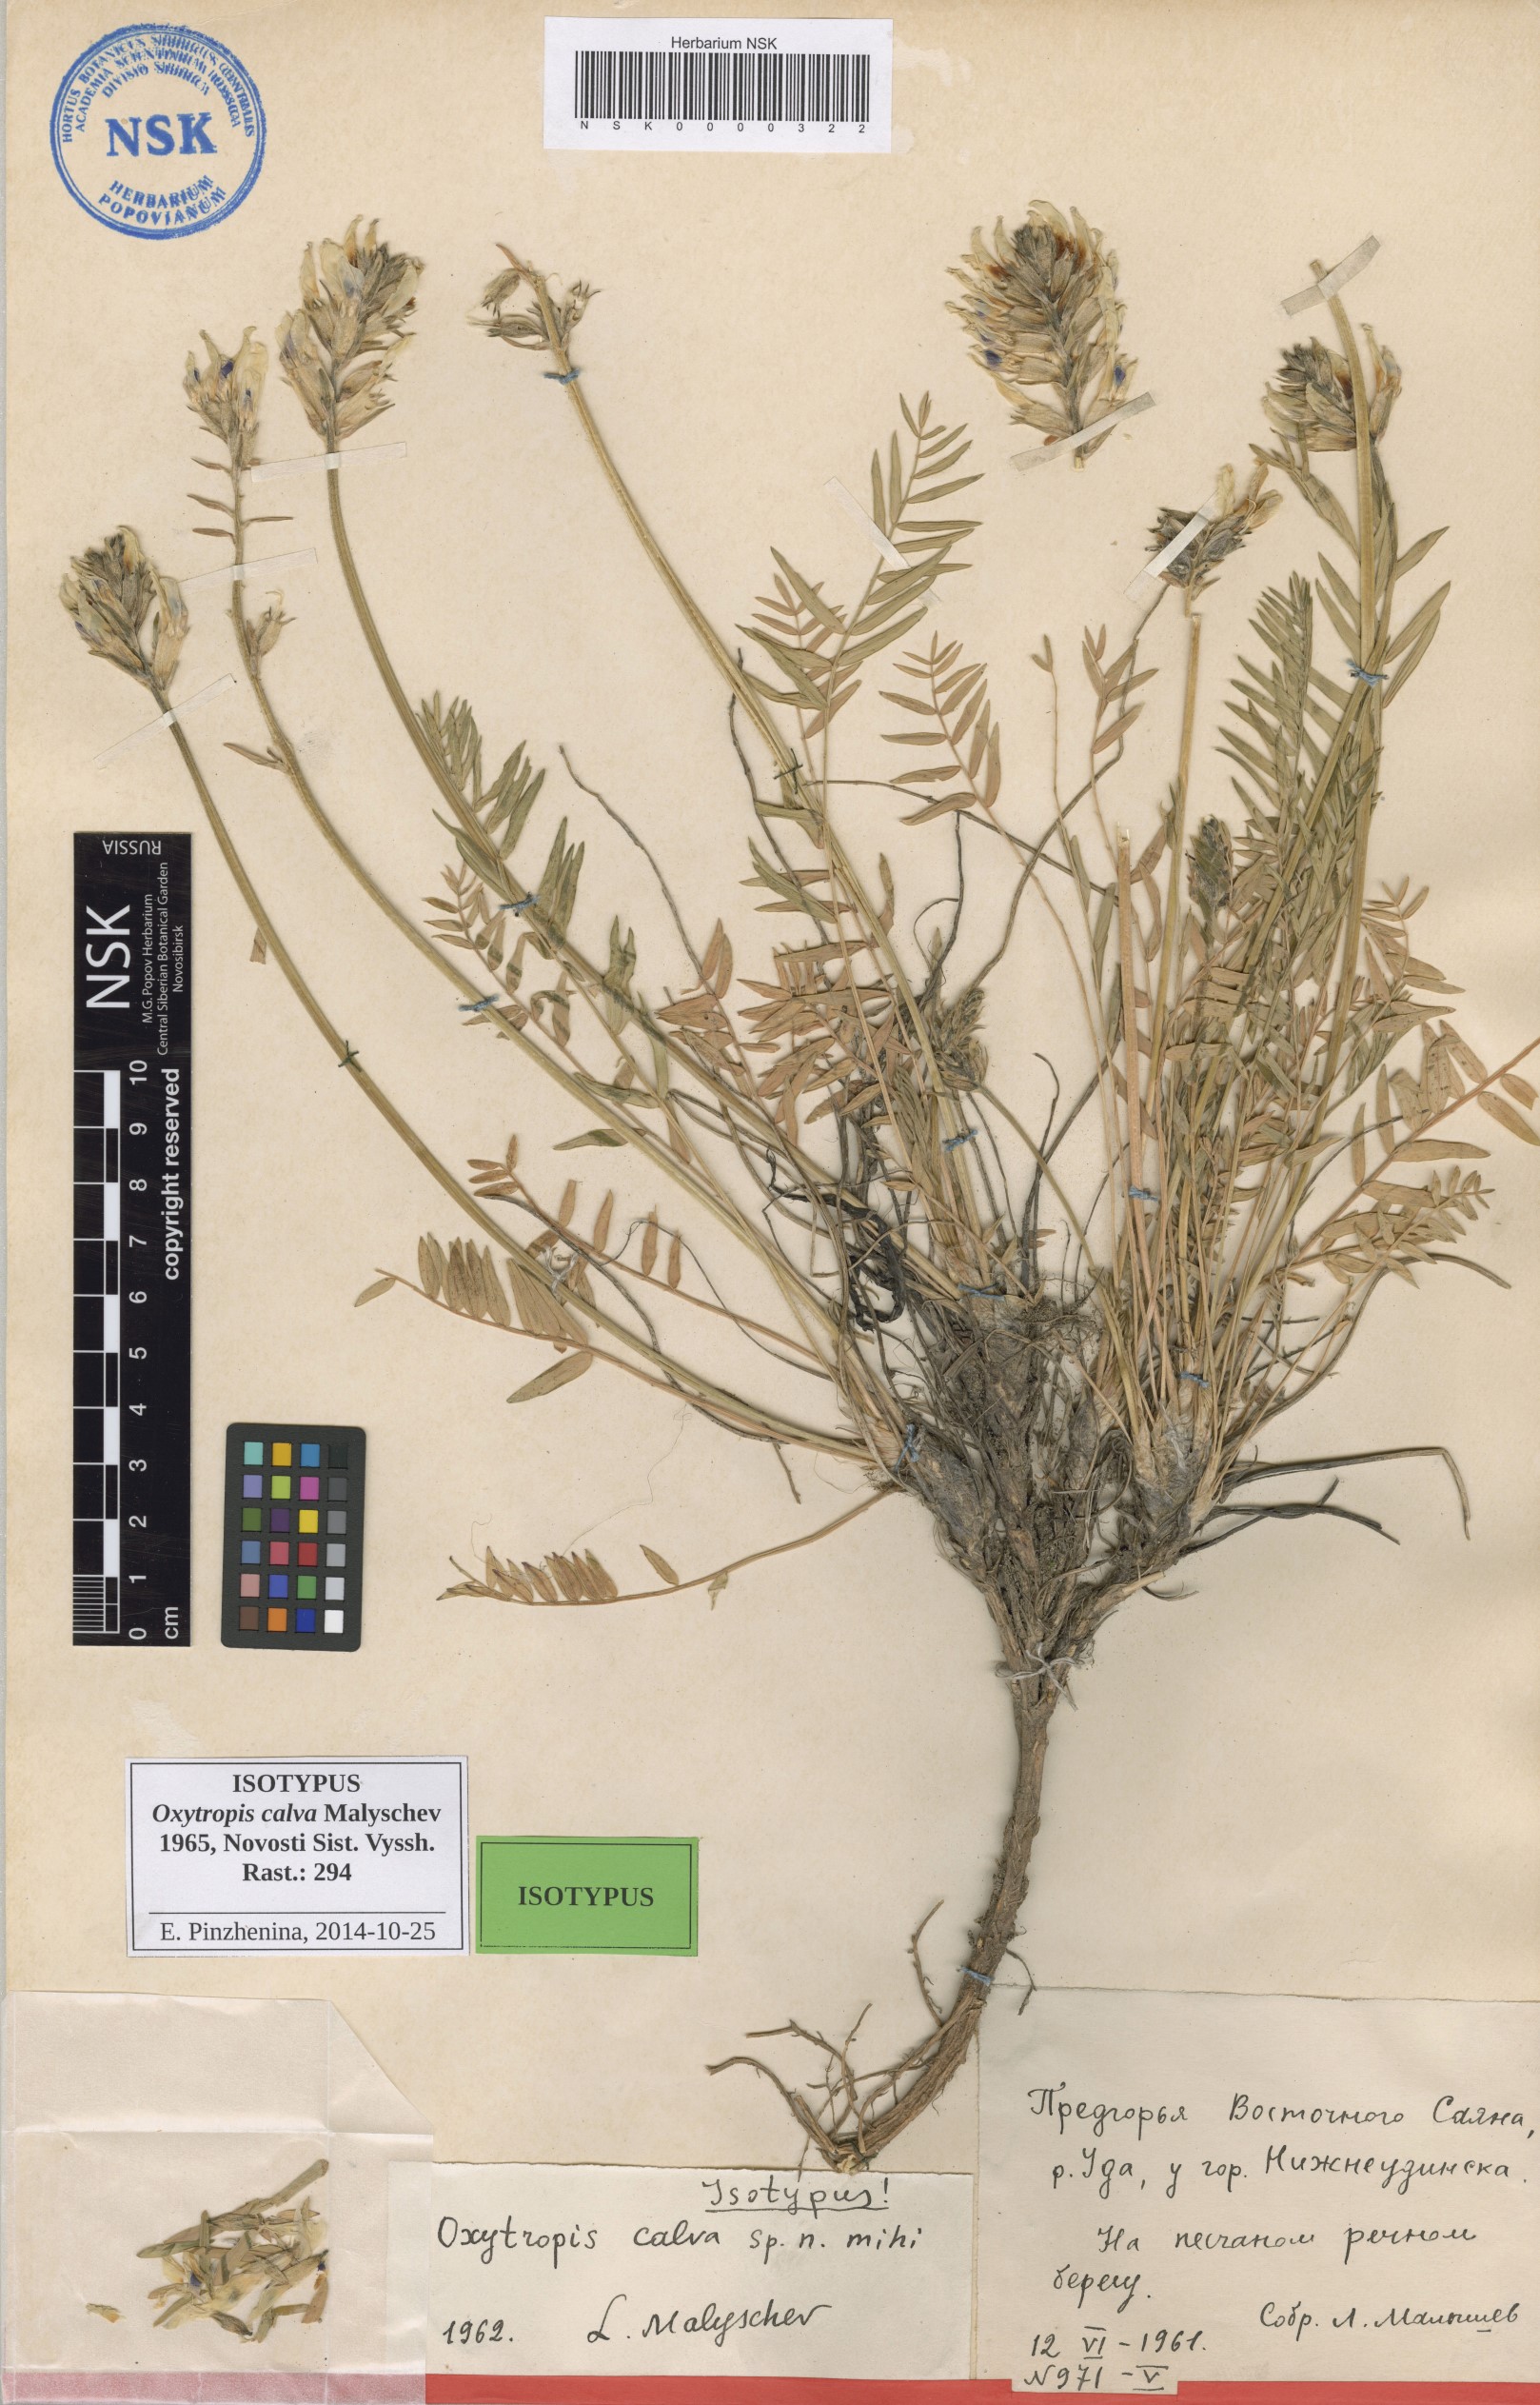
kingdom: Plantae
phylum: Tracheophyta
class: Magnoliopsida
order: Fabales
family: Fabaceae
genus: Oxytropis
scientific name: Oxytropis calva
